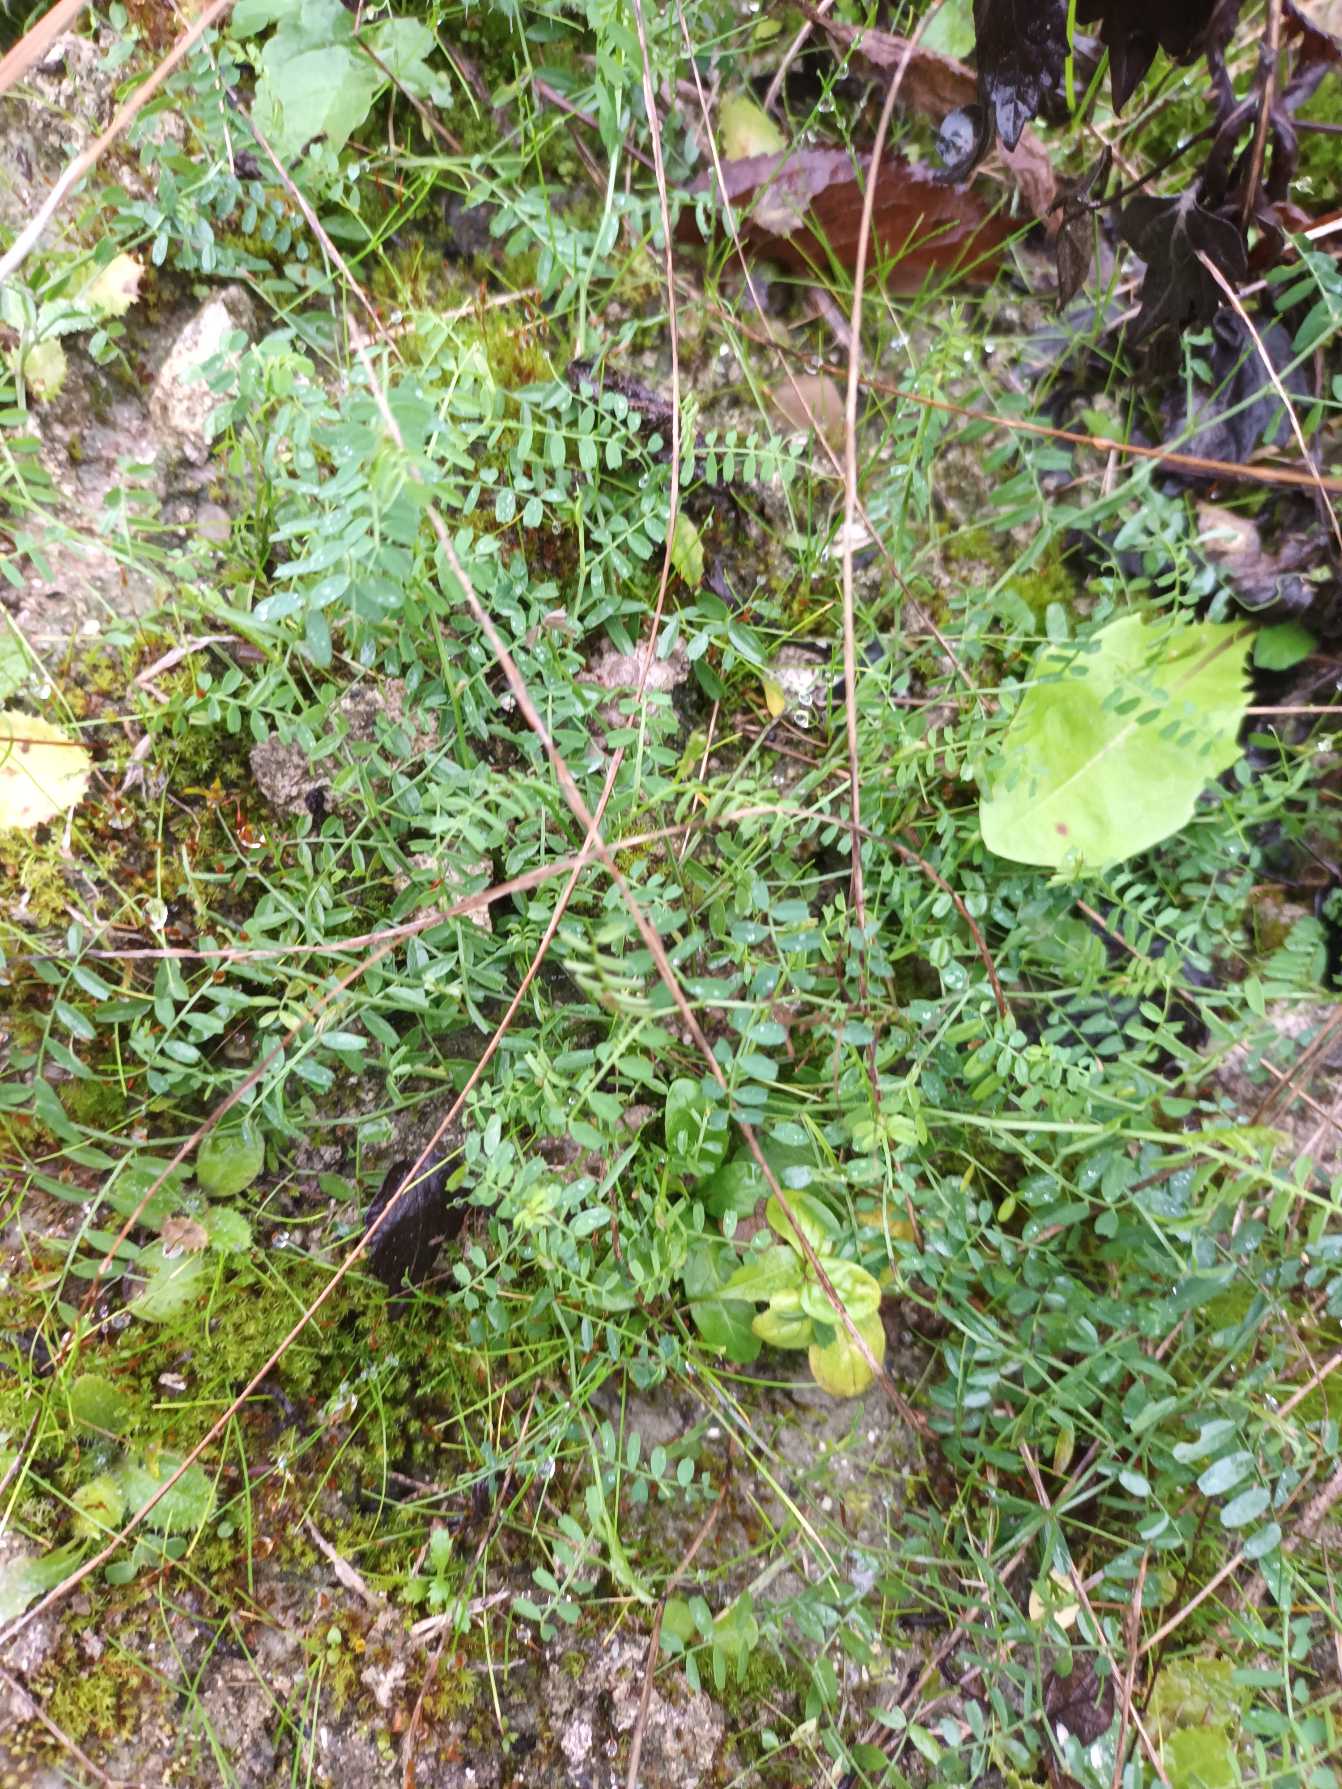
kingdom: Plantae
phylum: Tracheophyta
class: Magnoliopsida
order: Fabales
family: Fabaceae
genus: Vicia
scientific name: Vicia hirsuta
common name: Tofrøet vikke
